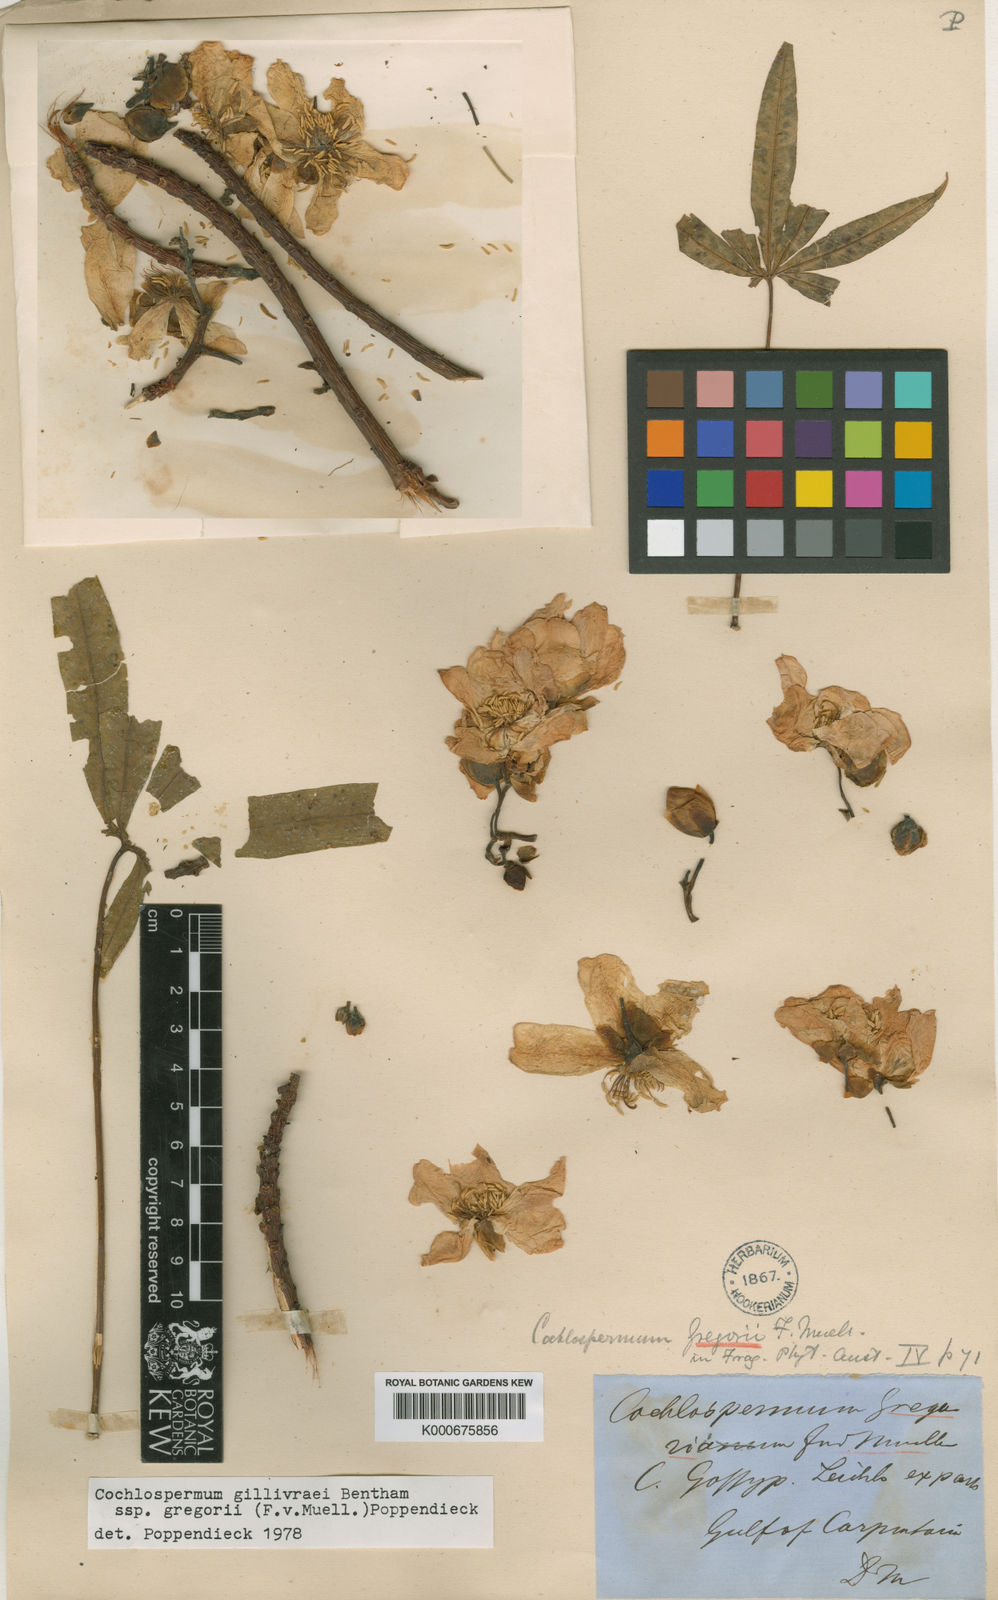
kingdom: Plantae
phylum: Tracheophyta
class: Magnoliopsida
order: Malvales
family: Cochlospermaceae
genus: Cochlospermum
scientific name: Cochlospermum gillivraei
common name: Cottontree
